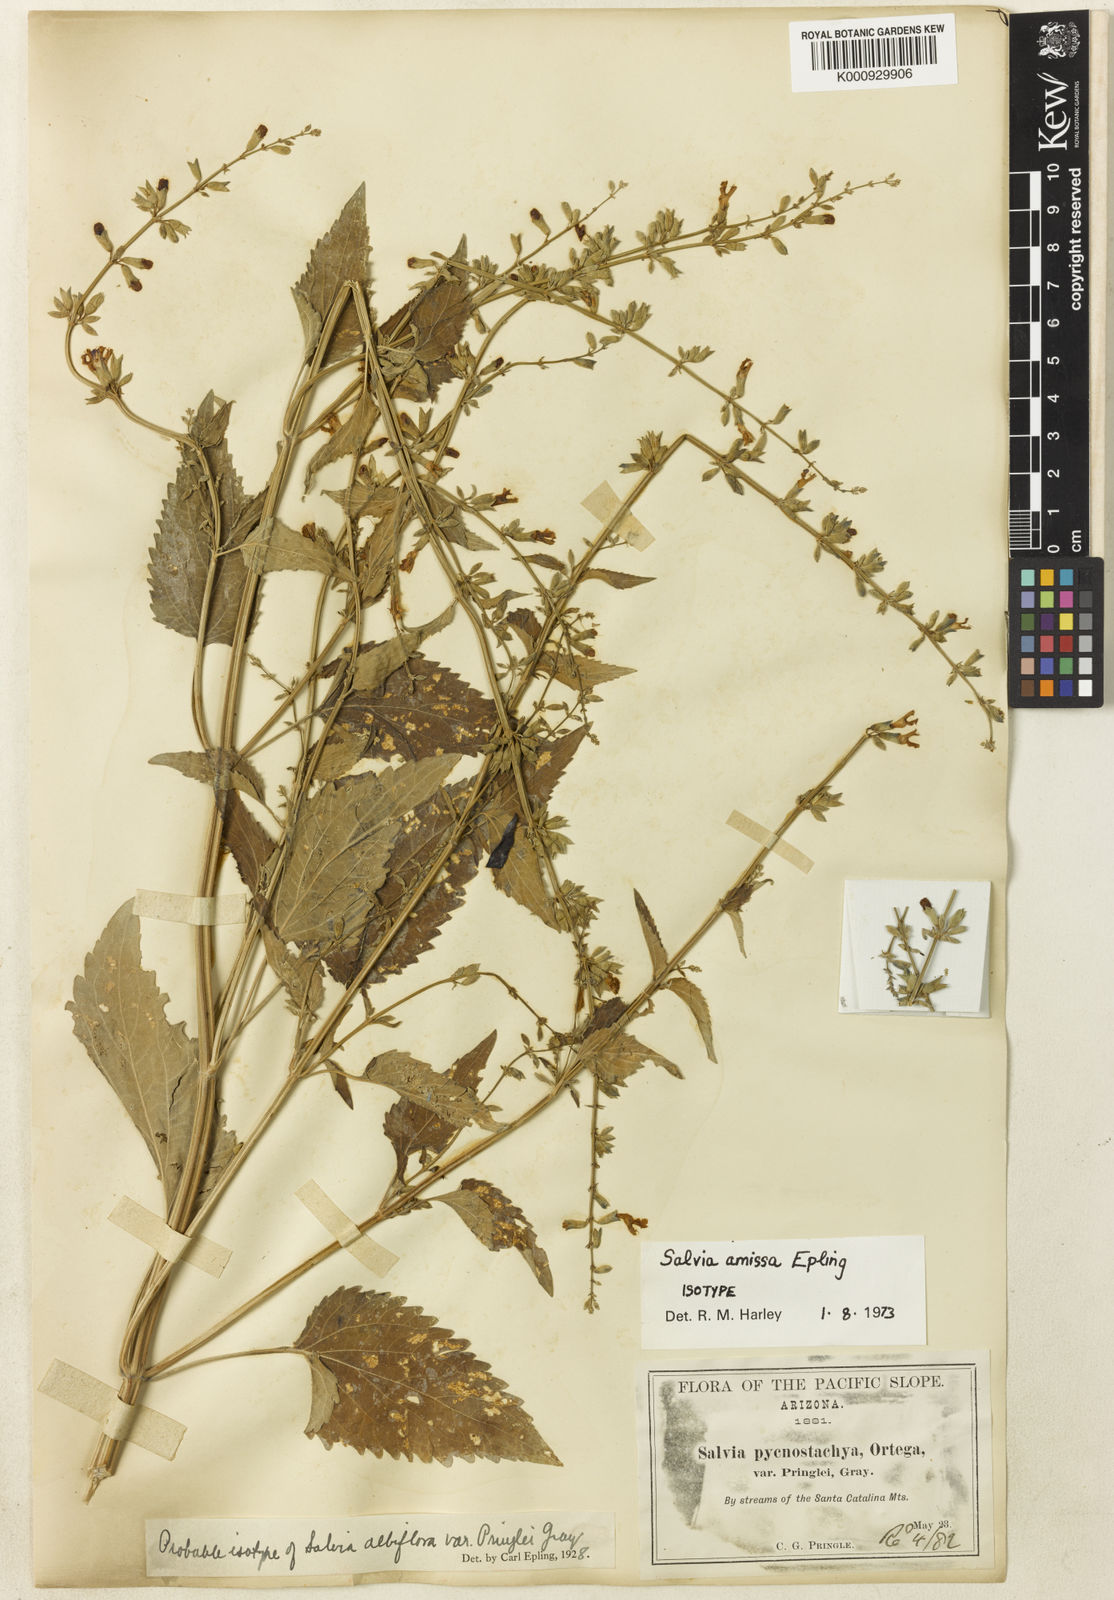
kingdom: Plantae
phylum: Tracheophyta
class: Magnoliopsida
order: Lamiales
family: Lamiaceae
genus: Salvia
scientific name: Salvia amissa
